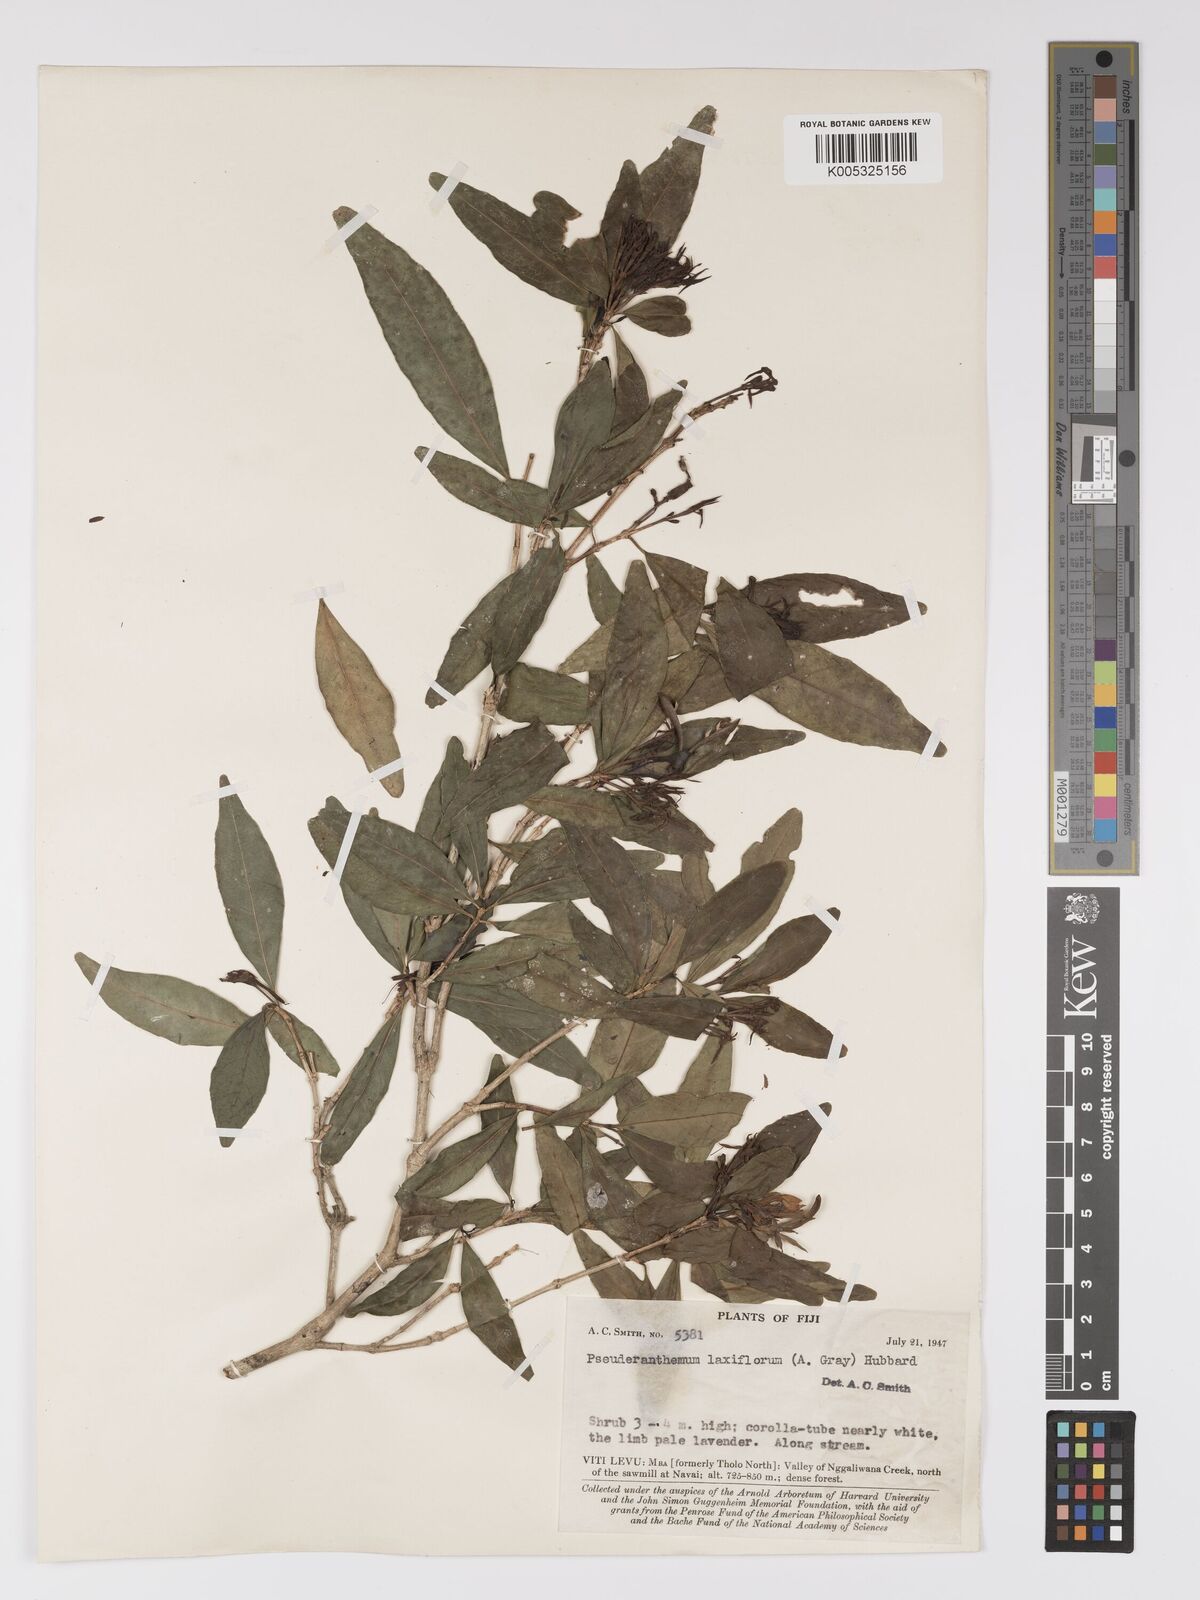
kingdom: Plantae
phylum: Tracheophyta
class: Magnoliopsida
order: Lamiales
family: Acanthaceae
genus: Pseuderanthemum
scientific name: Pseuderanthemum laxiflorum
